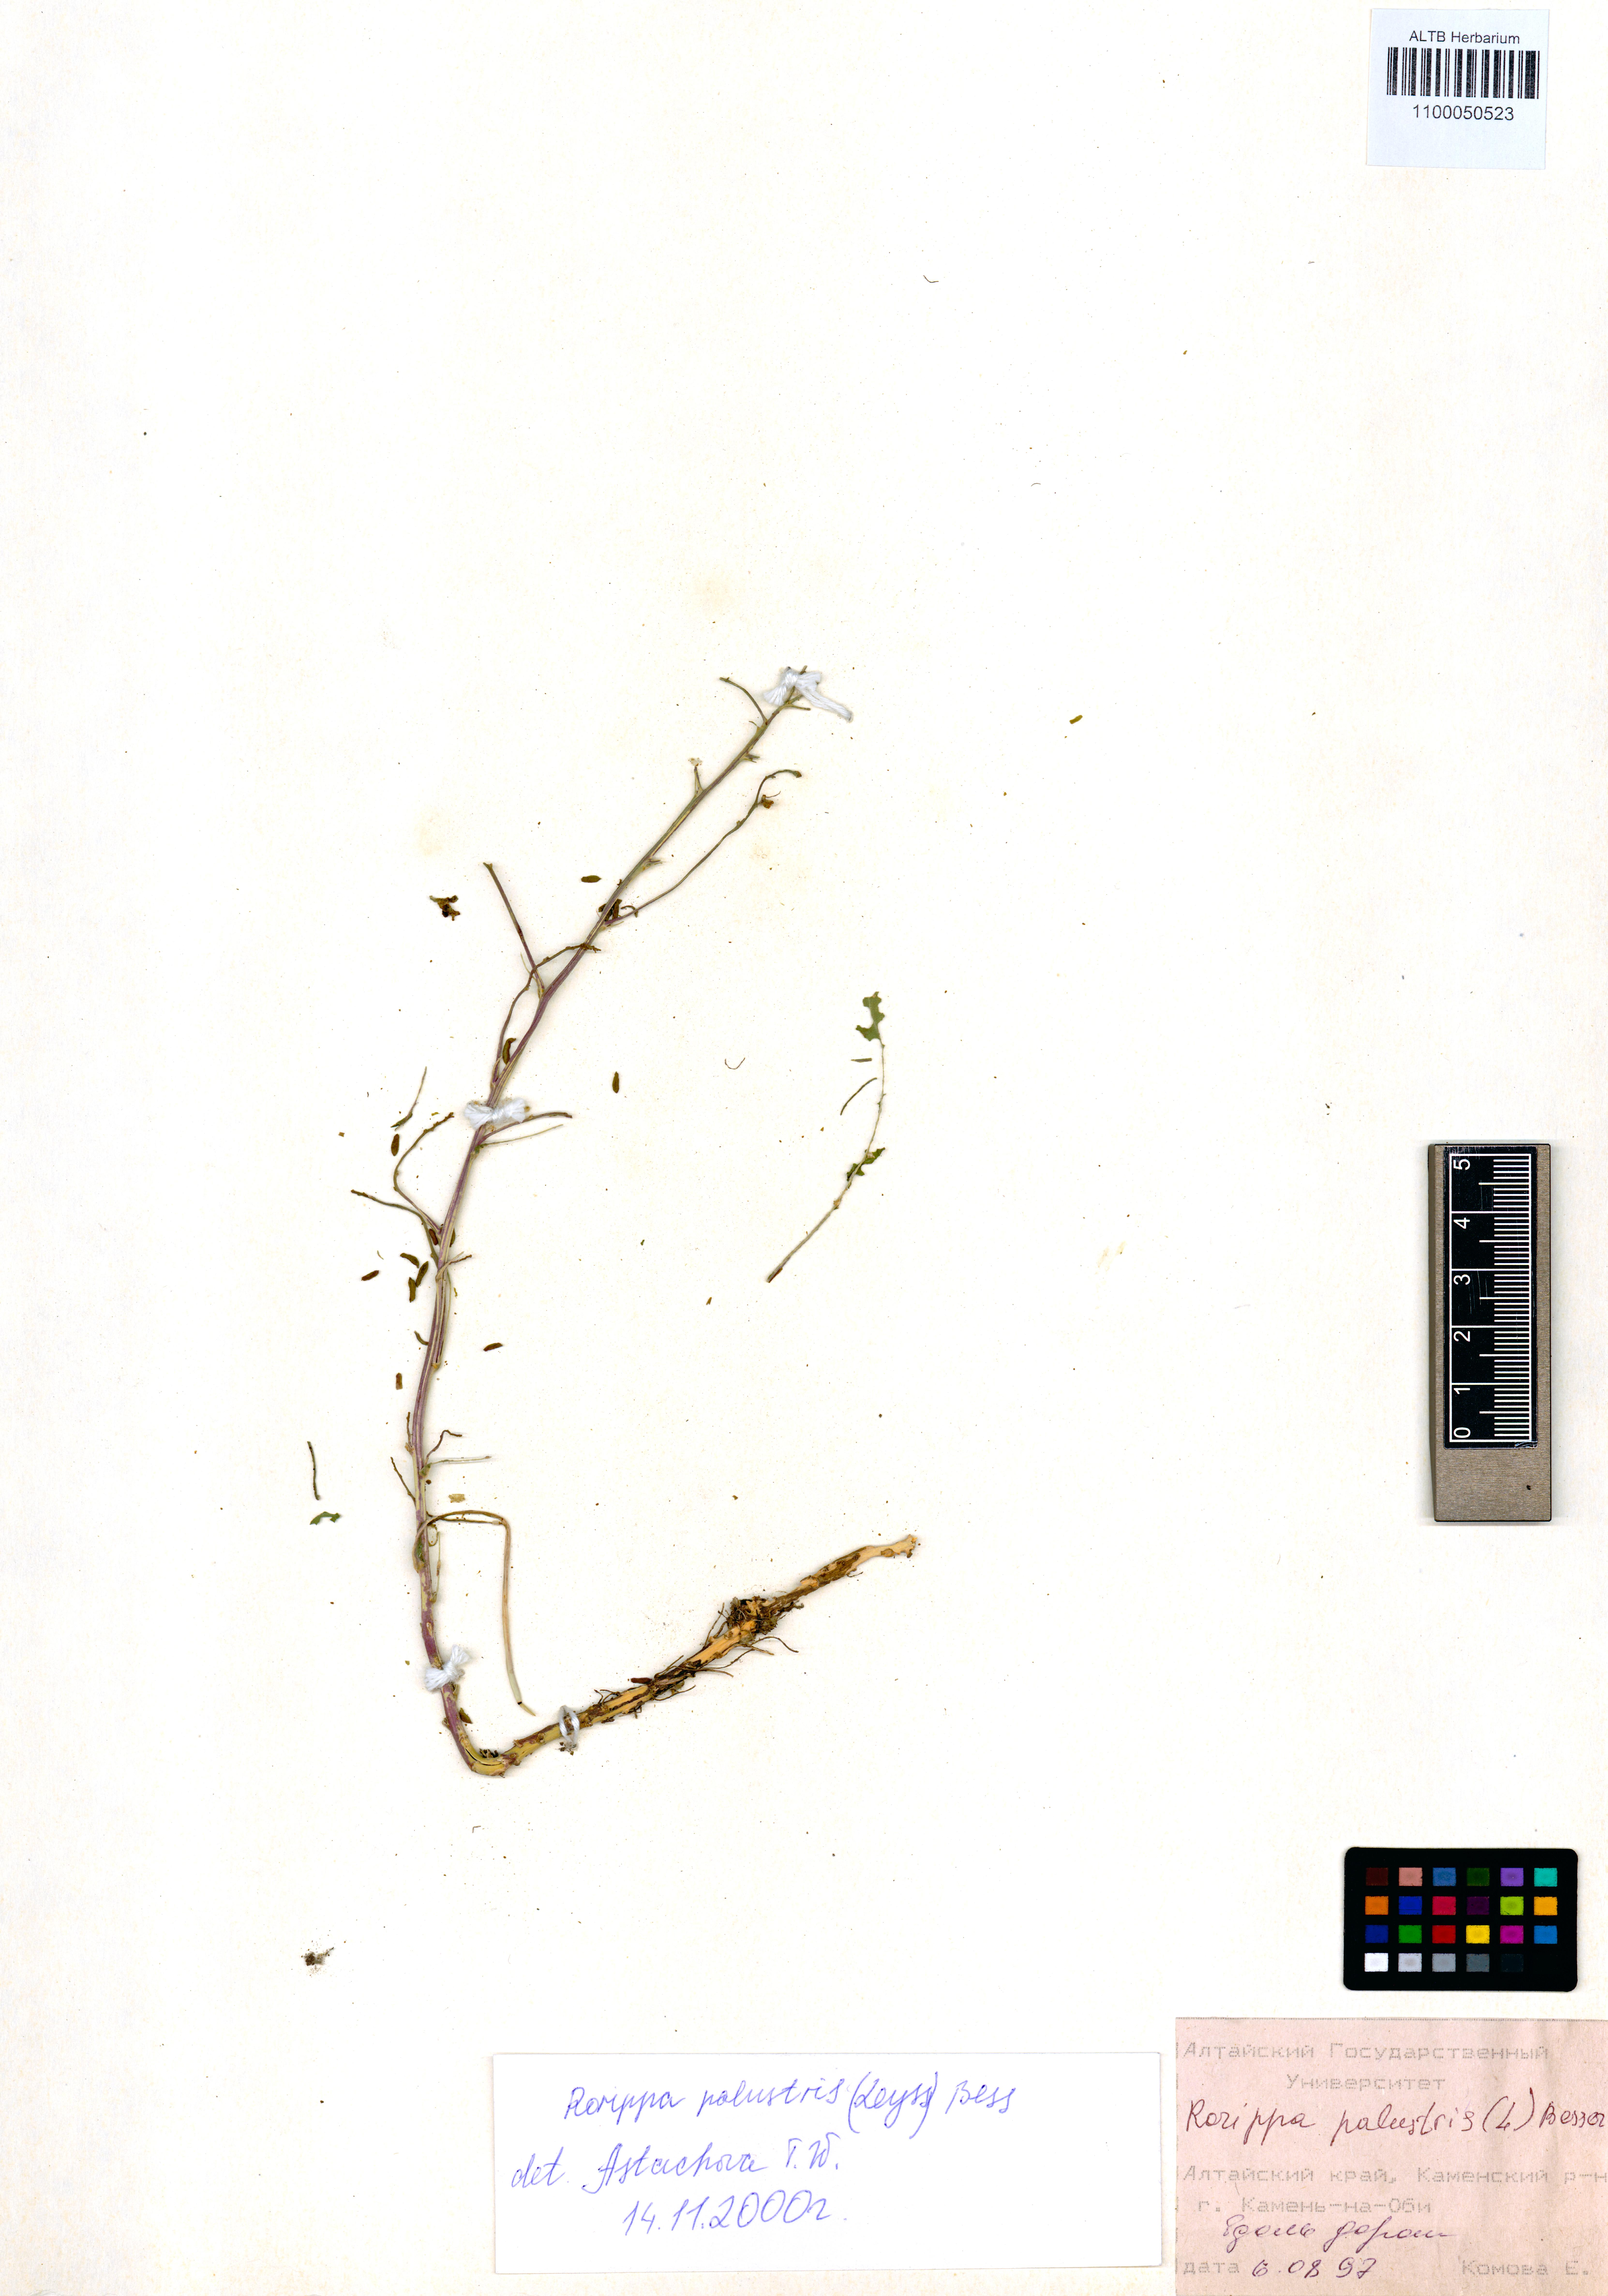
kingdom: Plantae
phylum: Tracheophyta
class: Magnoliopsida
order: Brassicales
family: Brassicaceae
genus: Rorippa
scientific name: Rorippa palustris
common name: Marsh yellow-cress
